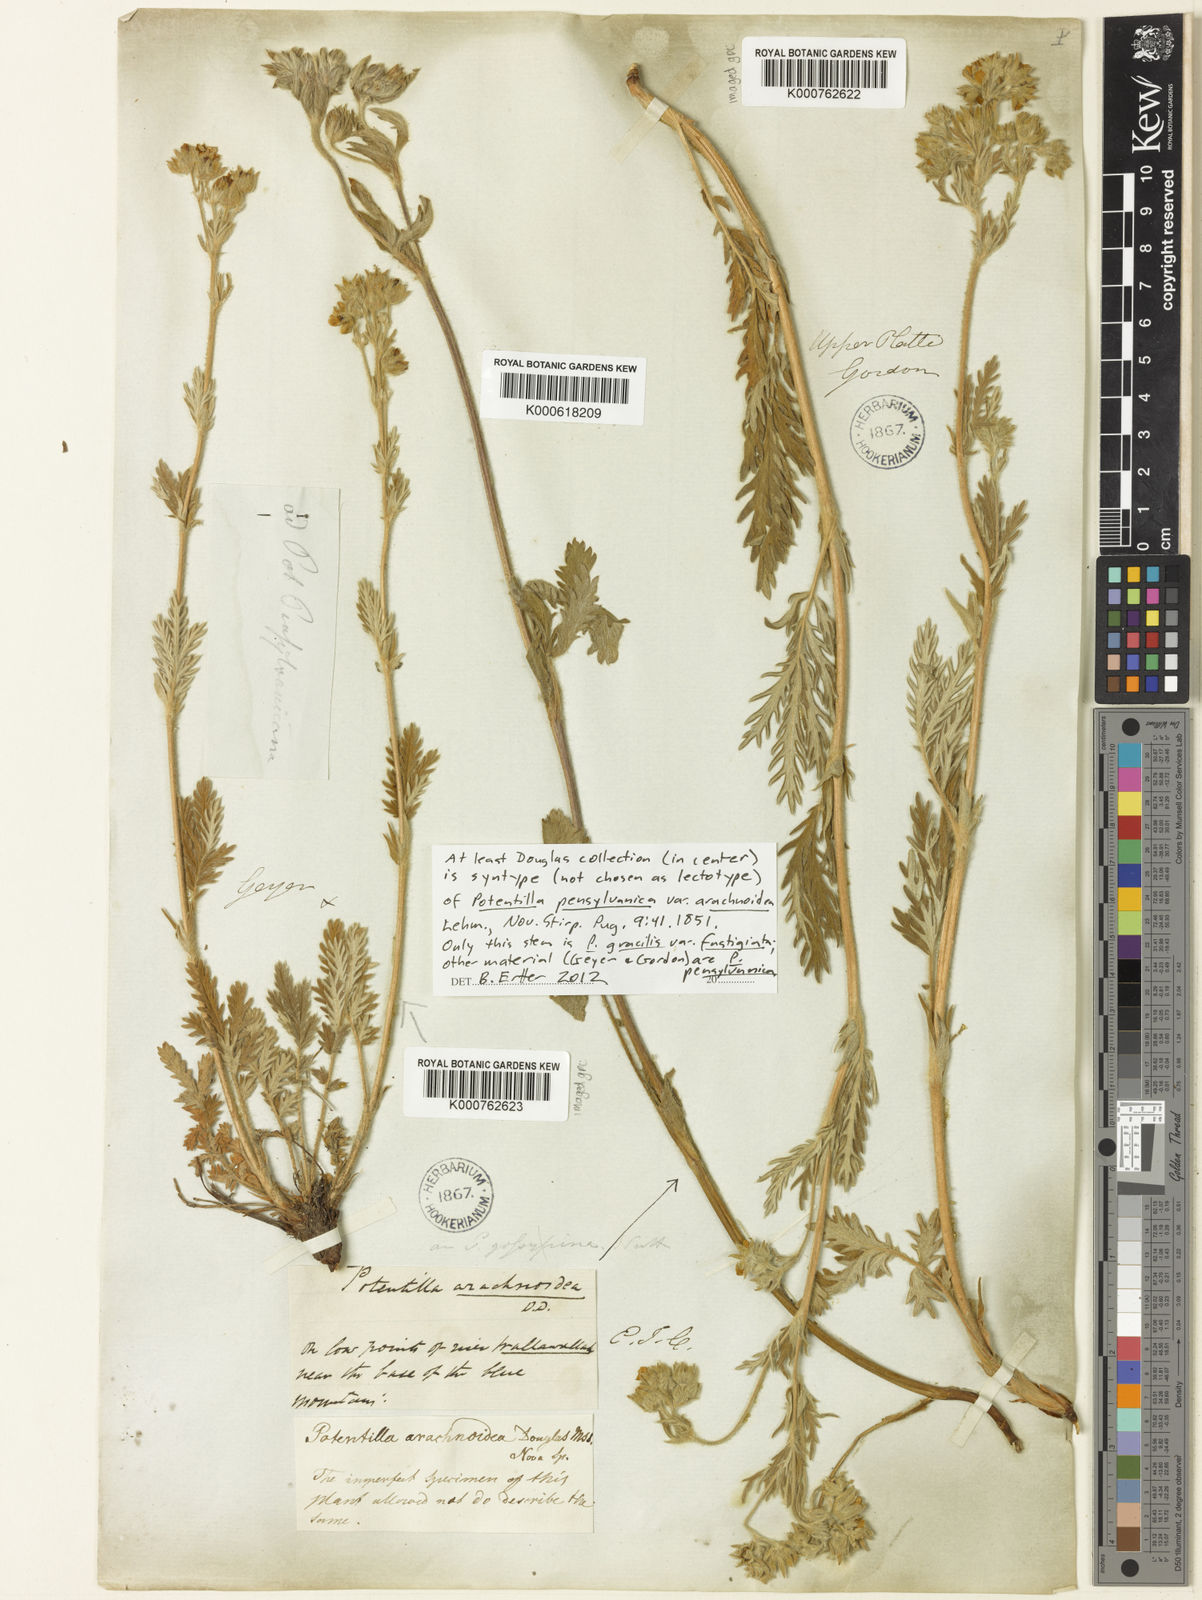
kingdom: Plantae
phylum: Tracheophyta
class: Magnoliopsida
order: Rosales
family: Rosaceae
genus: Potentilla
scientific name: Potentilla gracilis
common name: Graceful cinquefoil
